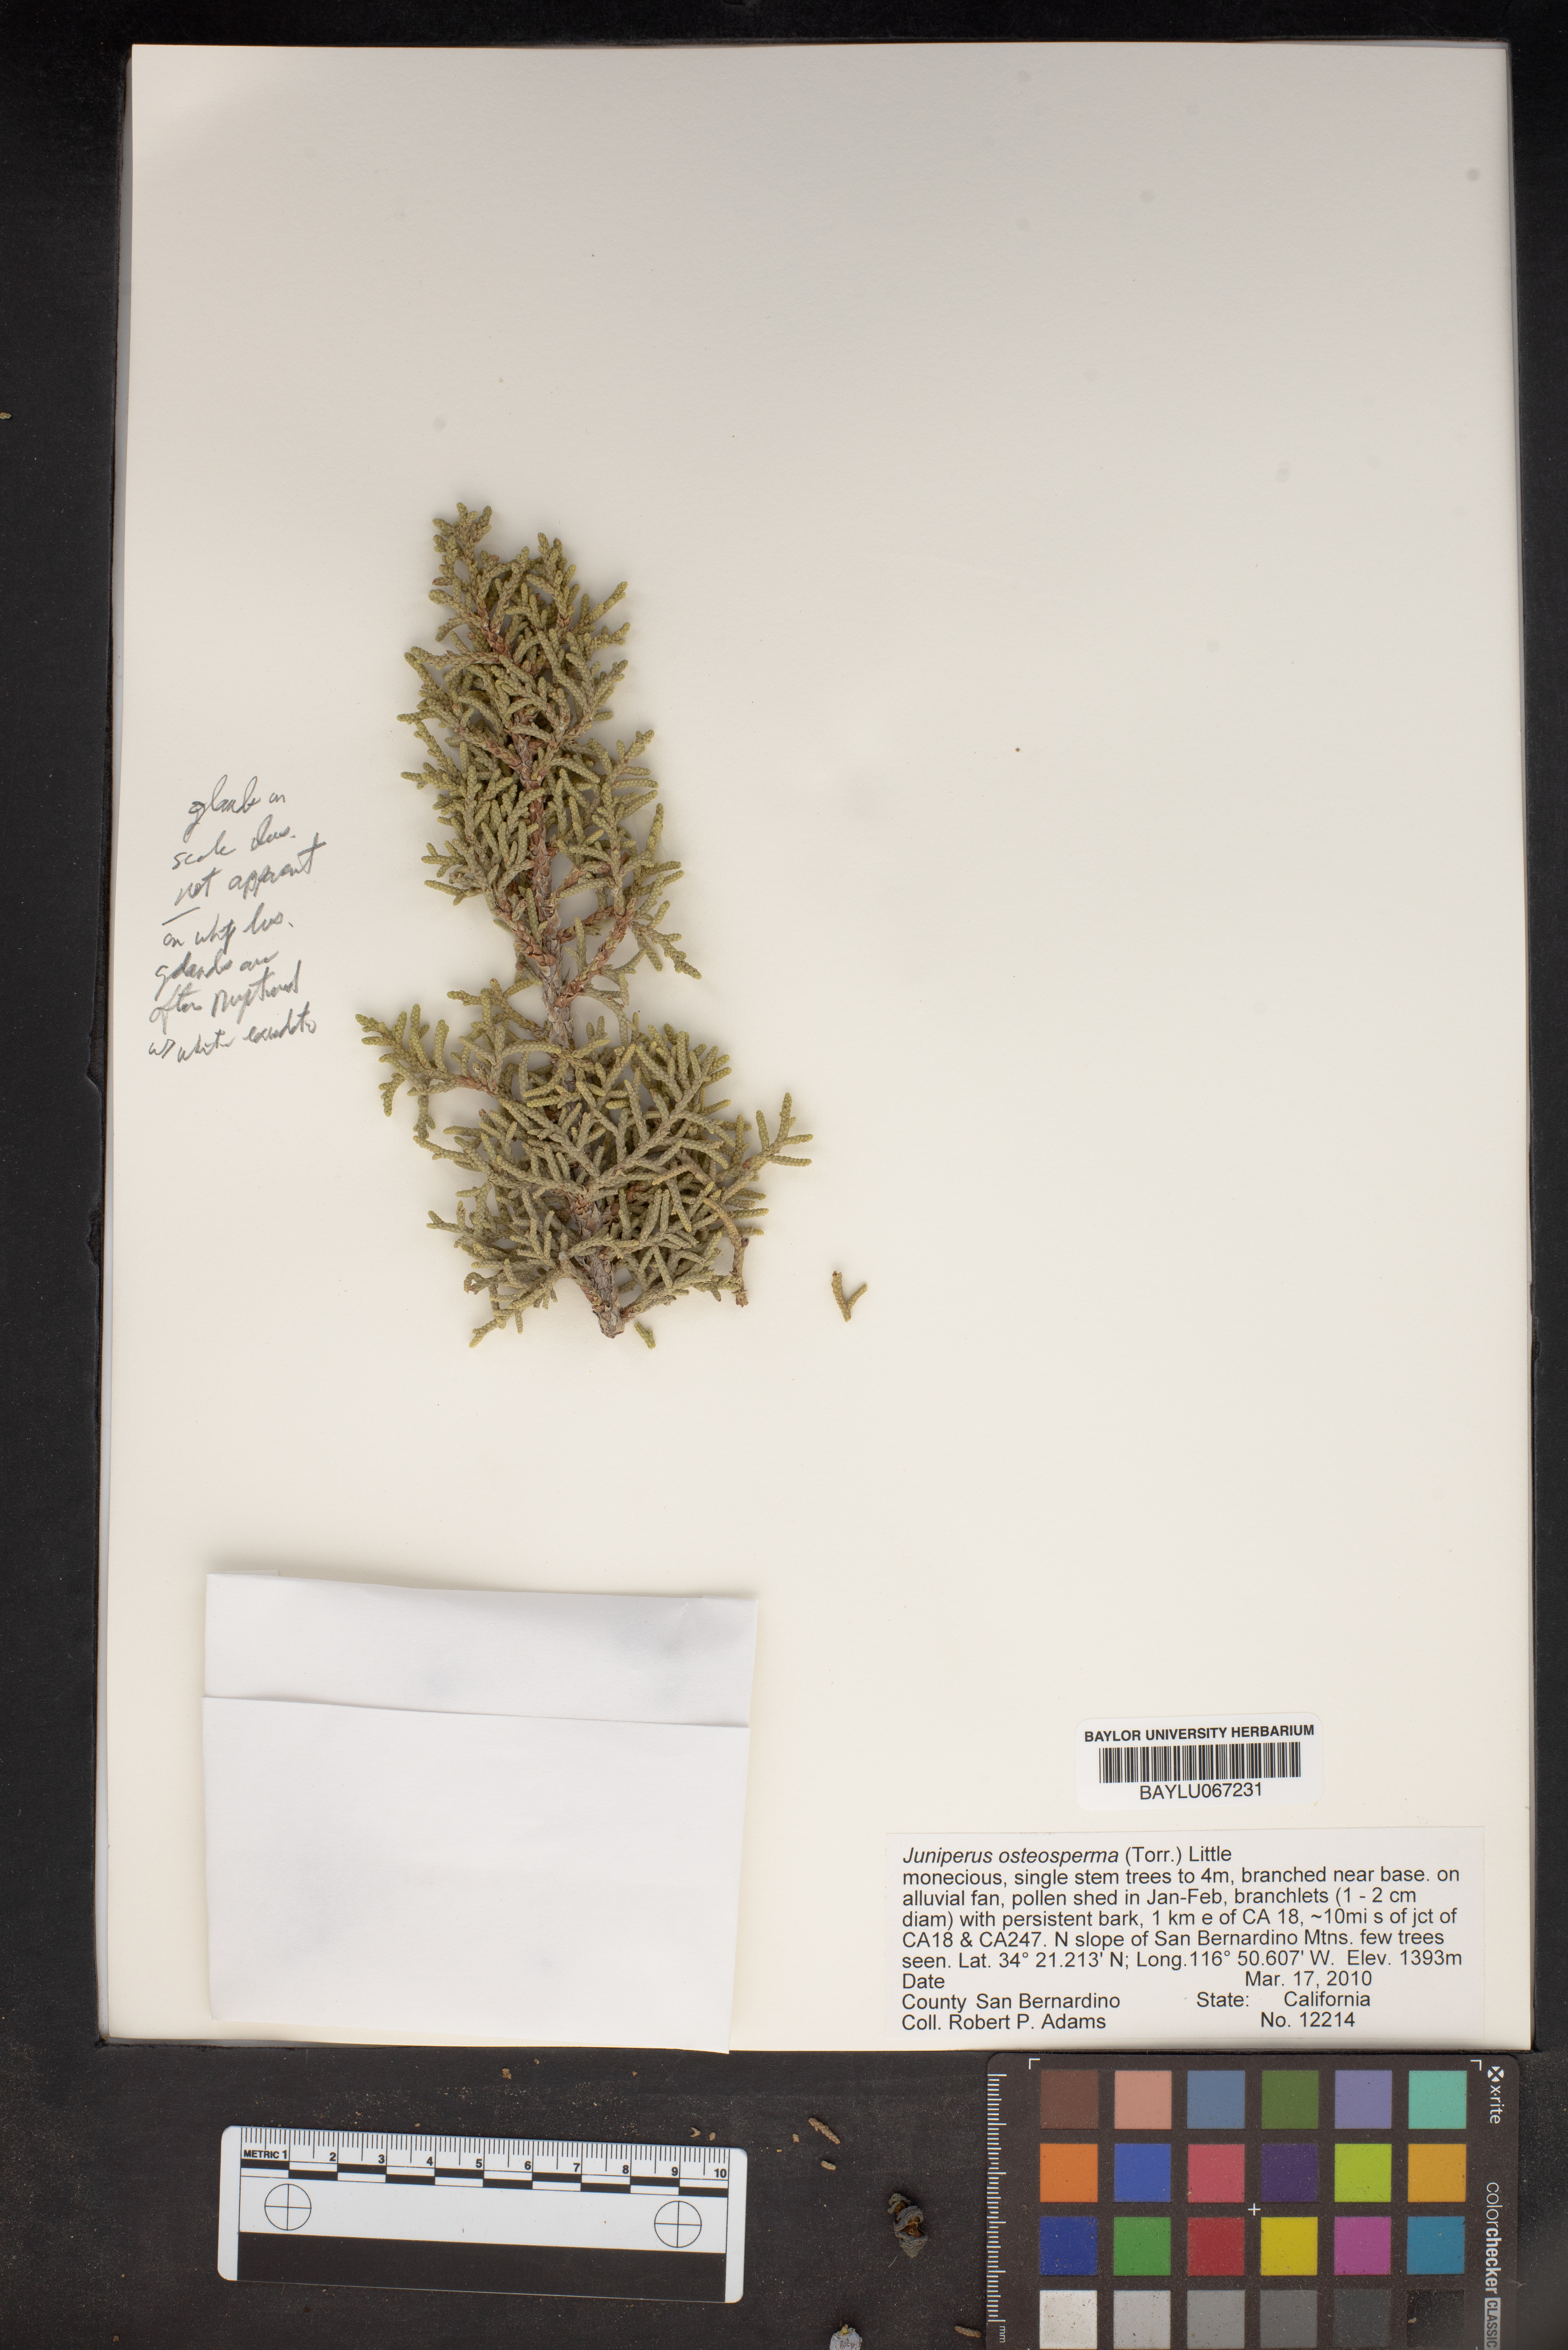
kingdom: Plantae
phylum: Tracheophyta
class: Pinopsida
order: Pinales
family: Cupressaceae
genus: Juniperus
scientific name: Juniperus osteosperma
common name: Utah juniper
